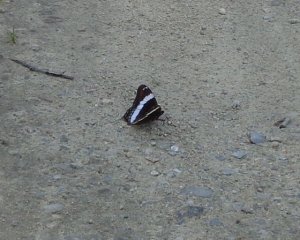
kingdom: Animalia
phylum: Arthropoda
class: Insecta
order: Lepidoptera
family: Nymphalidae
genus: Limenitis
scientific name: Limenitis arthemis
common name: Red-spotted Admiral
